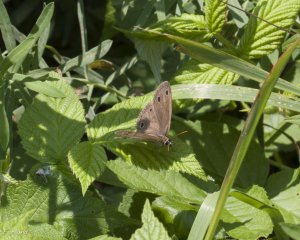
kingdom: Animalia
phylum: Arthropoda
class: Insecta
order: Lepidoptera
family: Nymphalidae
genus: Euptychia
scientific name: Euptychia cymela
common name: Little Wood Satyr
